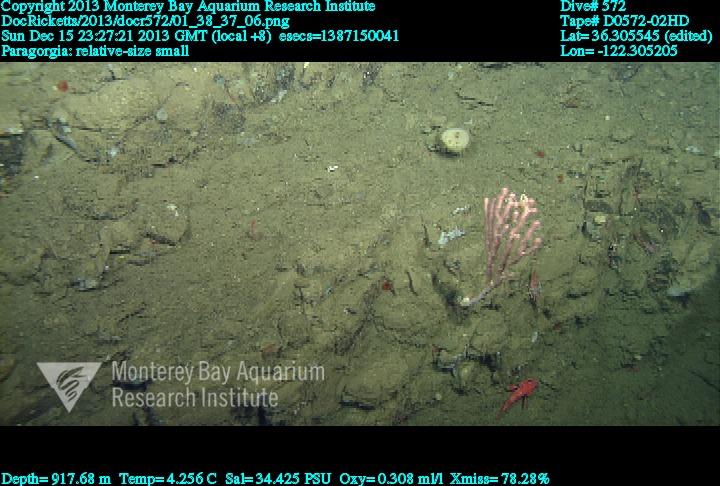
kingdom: Animalia
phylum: Cnidaria
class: Anthozoa
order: Scleralcyonacea
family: Coralliidae
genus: Sibogagorgia
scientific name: Sibogagorgia cauliflora
